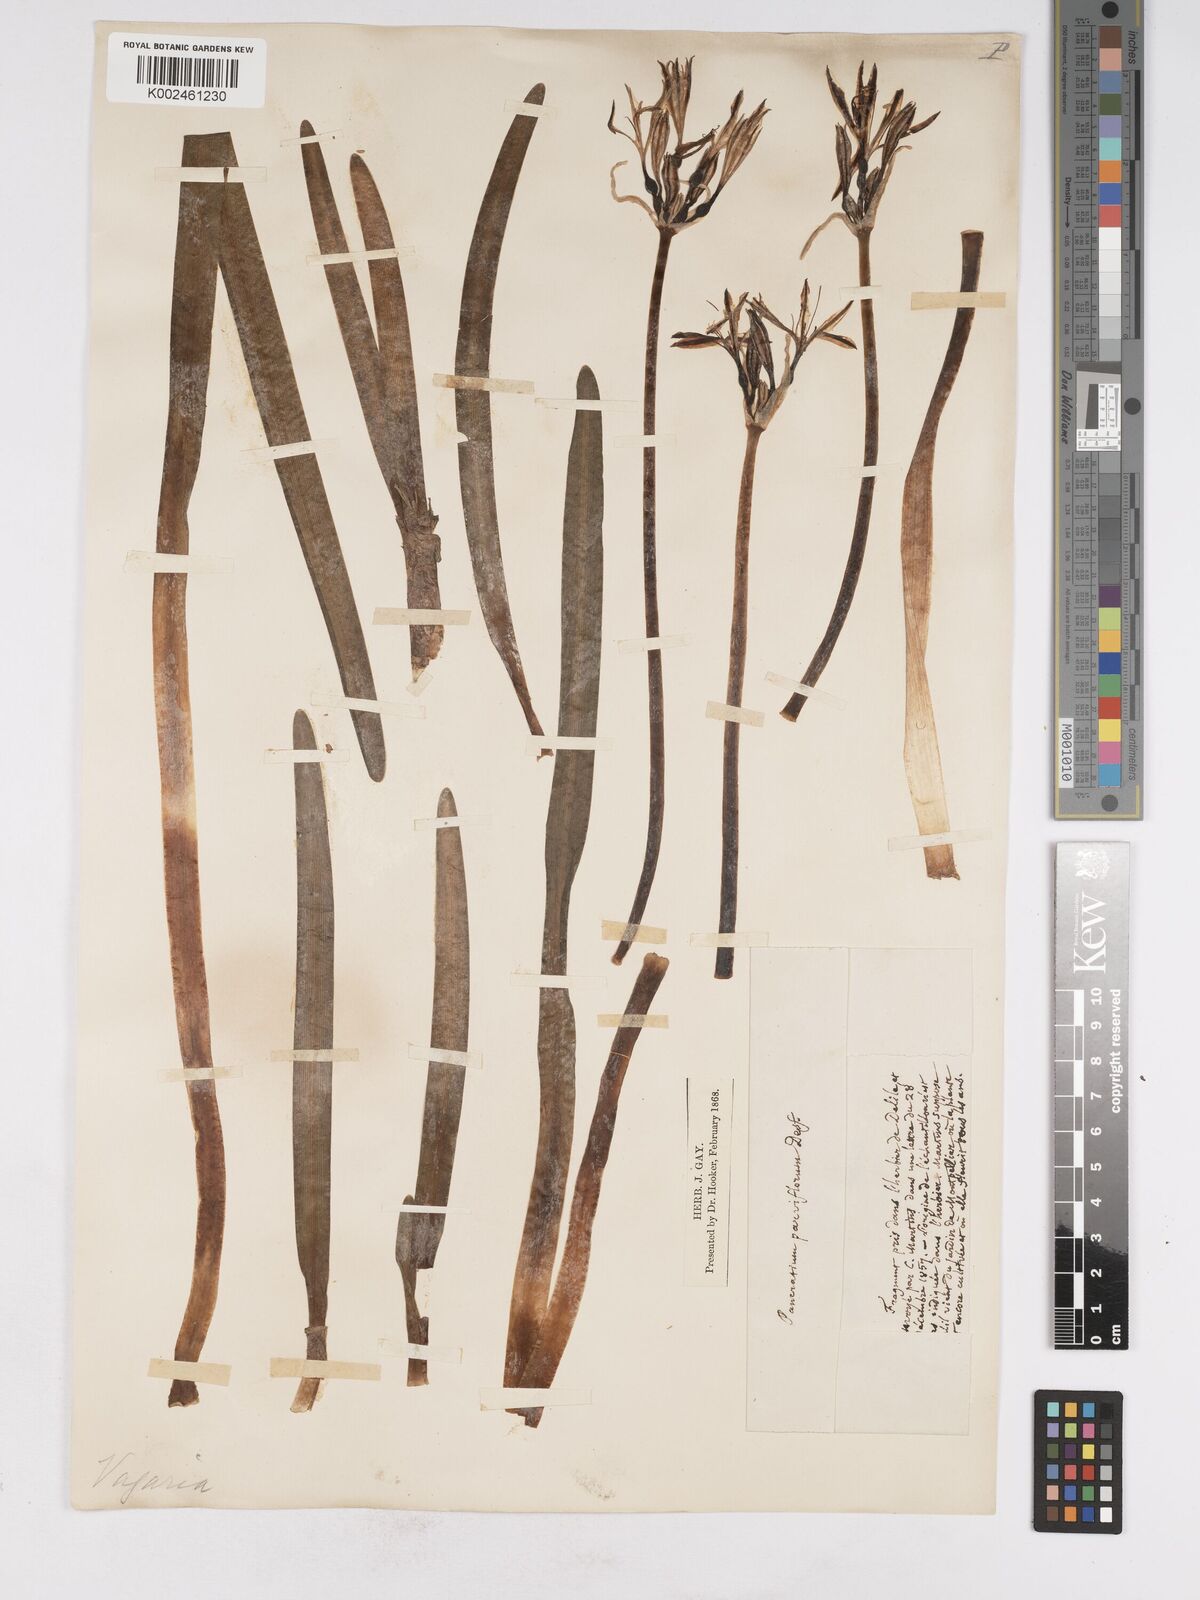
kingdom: Plantae
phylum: Tracheophyta
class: Liliopsida
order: Asparagales
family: Amaryllidaceae
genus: Vagaria
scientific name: Vagaria parviflora
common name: Small-flowered pancratium
